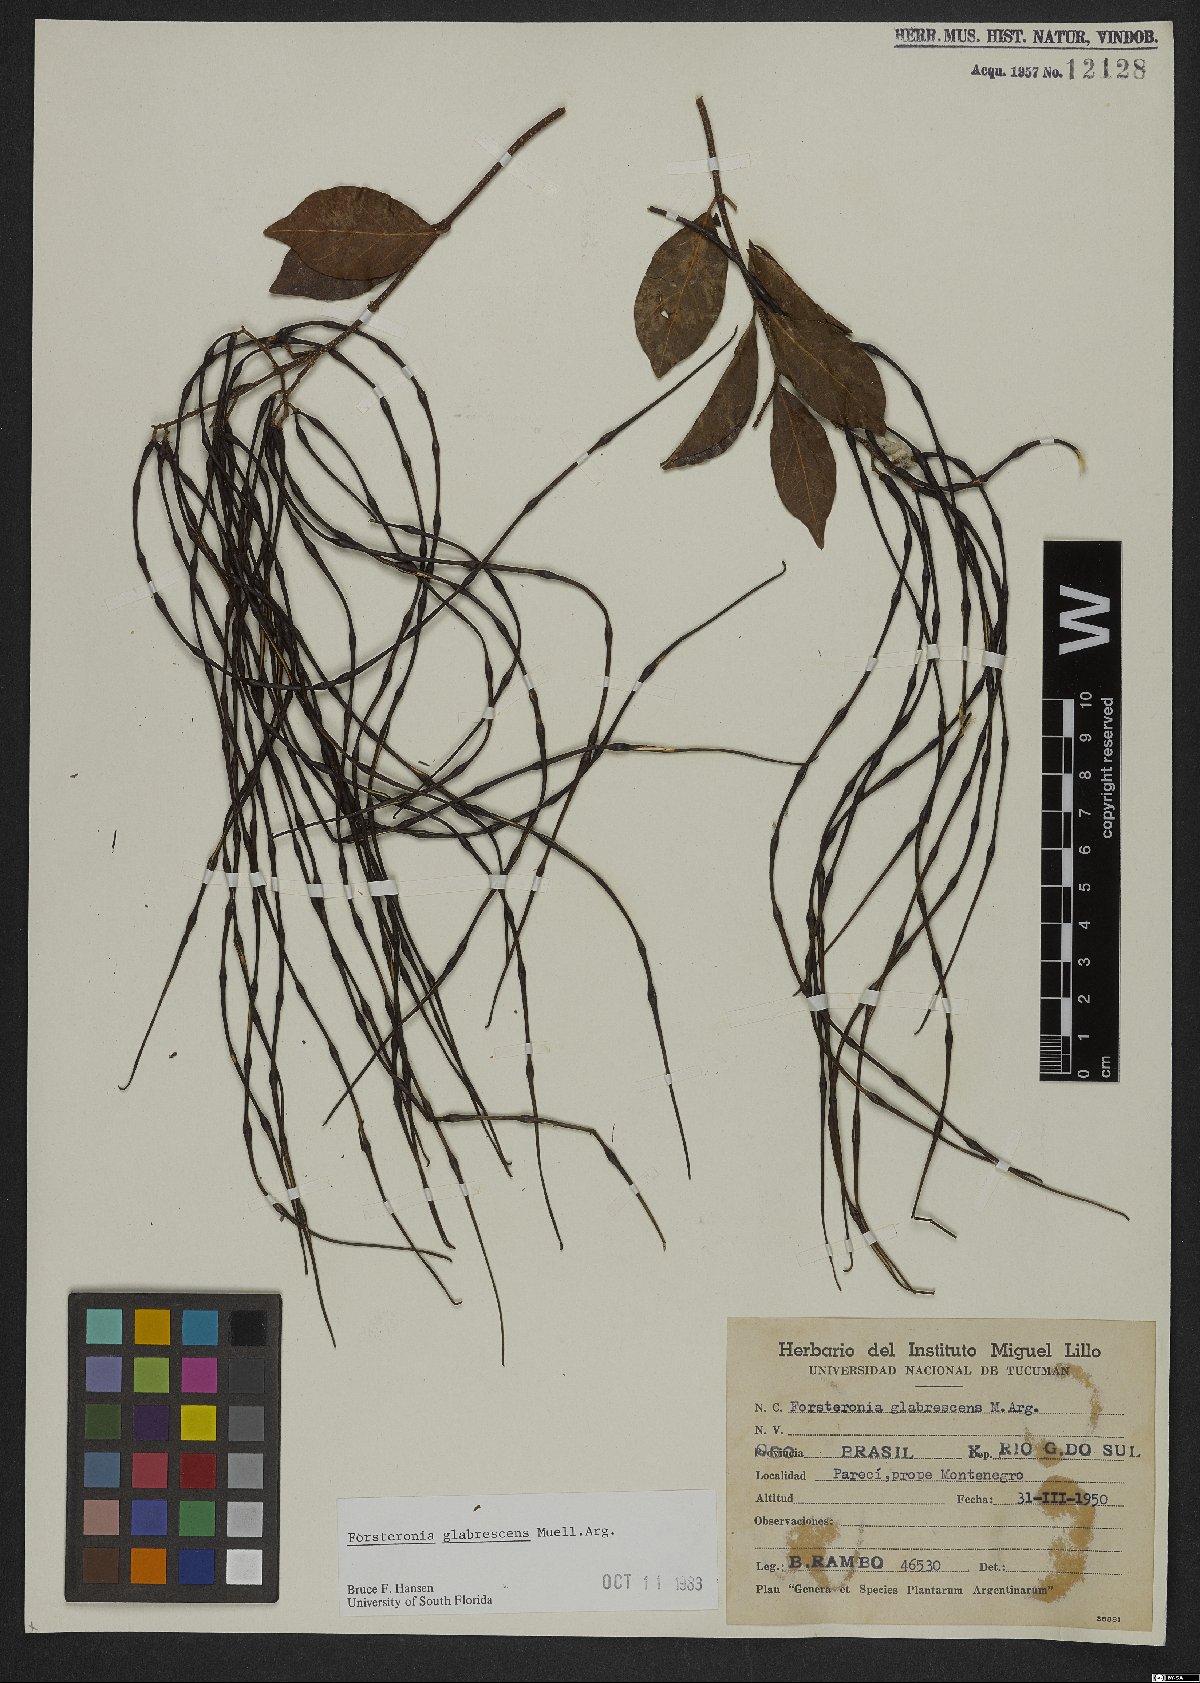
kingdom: Plantae
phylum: Tracheophyta
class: Magnoliopsida
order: Gentianales
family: Apocynaceae
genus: Forsteronia
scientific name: Forsteronia glabrescens
